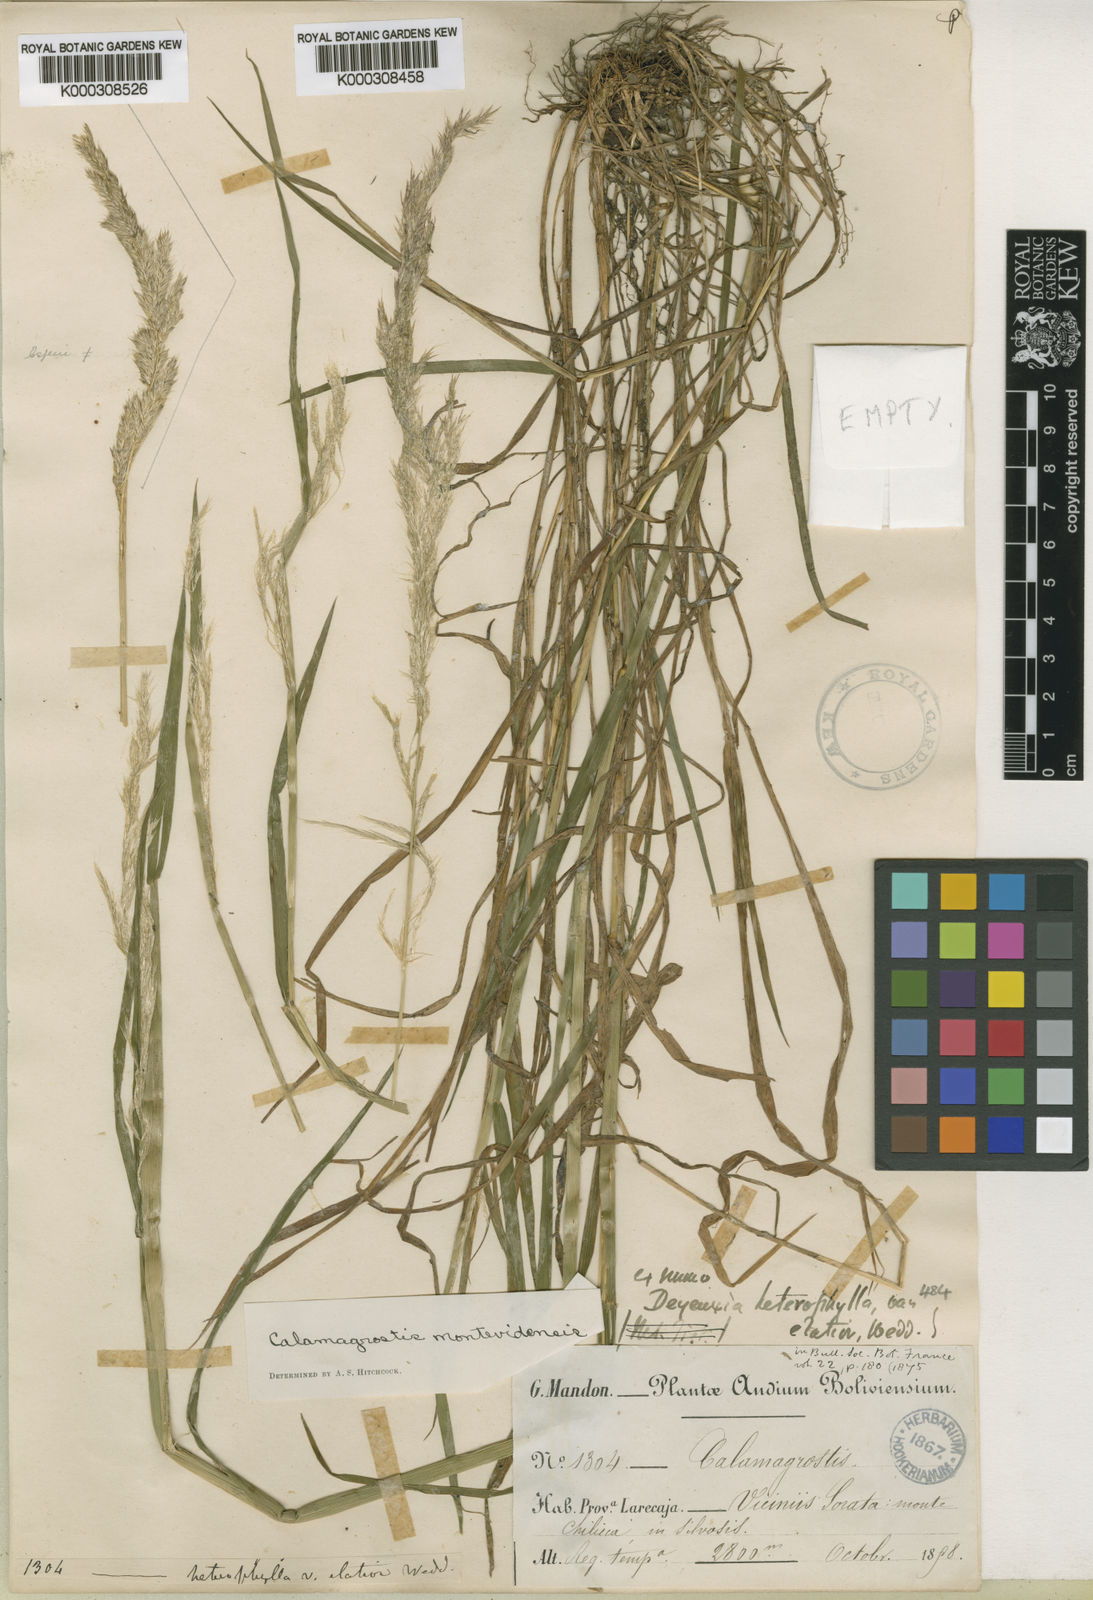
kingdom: Plantae
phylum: Tracheophyta
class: Liliopsida
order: Poales
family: Poaceae
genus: Cinnagrostis
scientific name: Cinnagrostis rupestris
